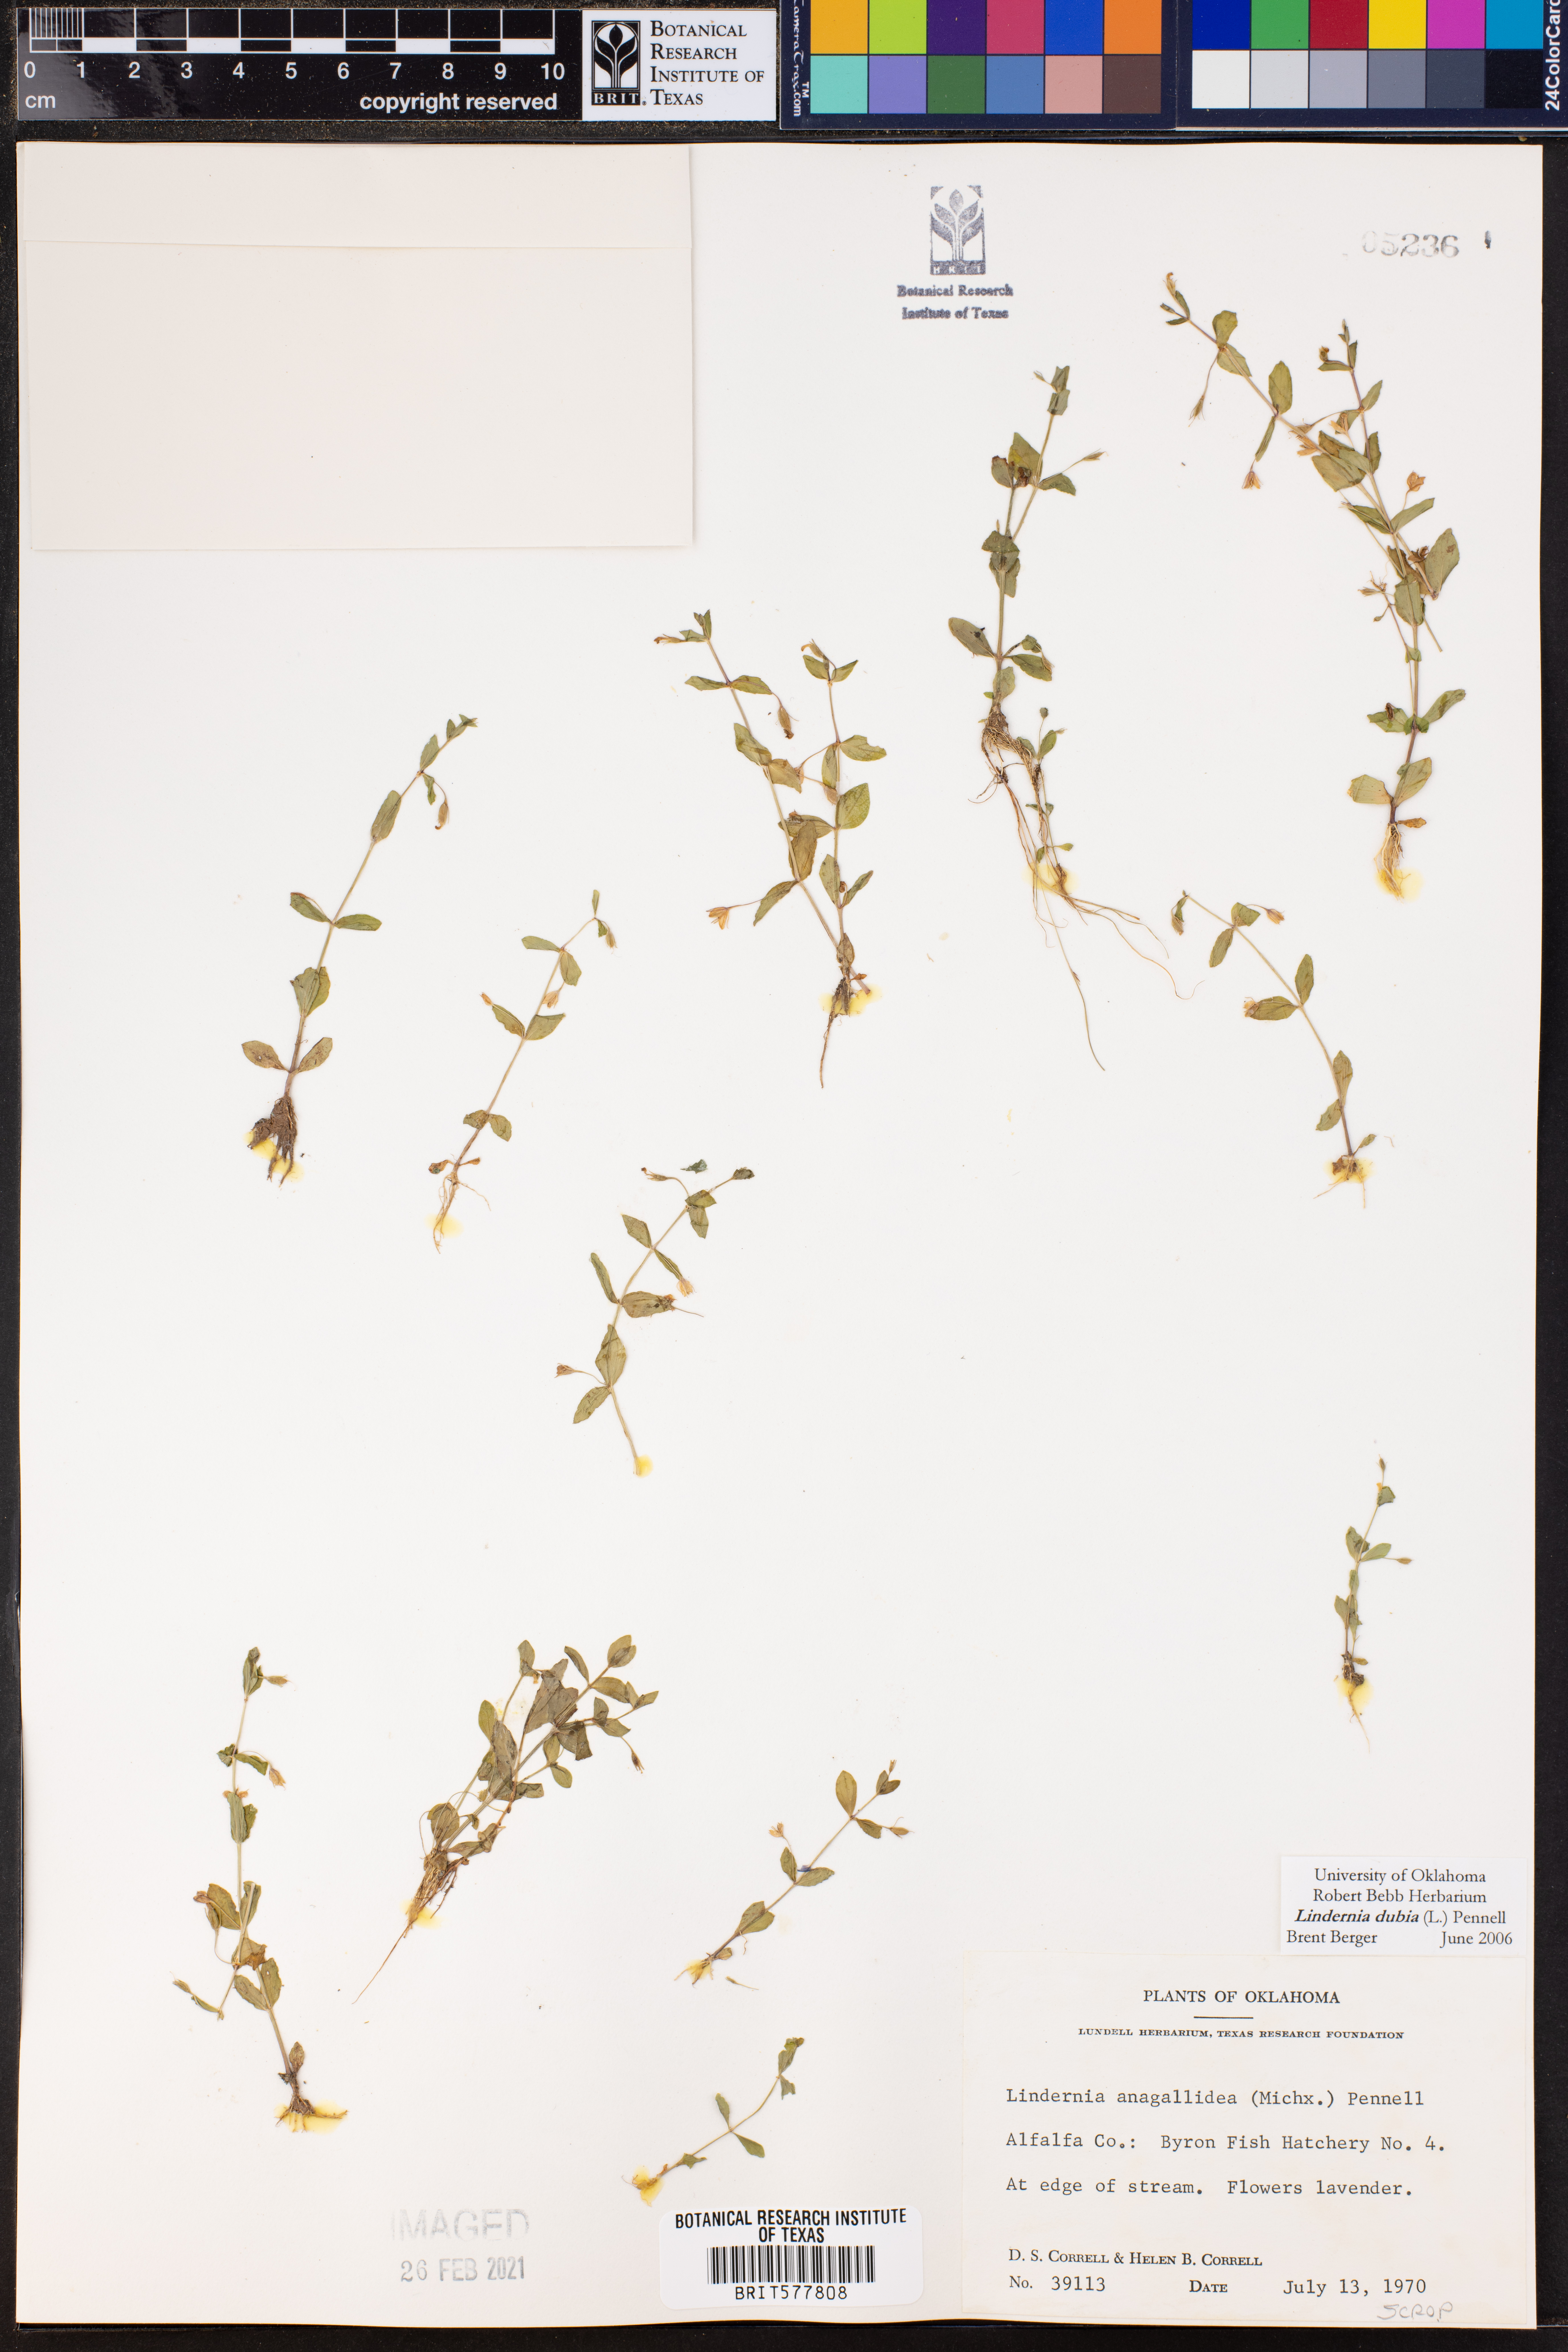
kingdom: Plantae
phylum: Tracheophyta
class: Magnoliopsida
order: Lamiales
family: Linderniaceae
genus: Lindernia
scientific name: Lindernia dubia
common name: Annual false pimpernel
